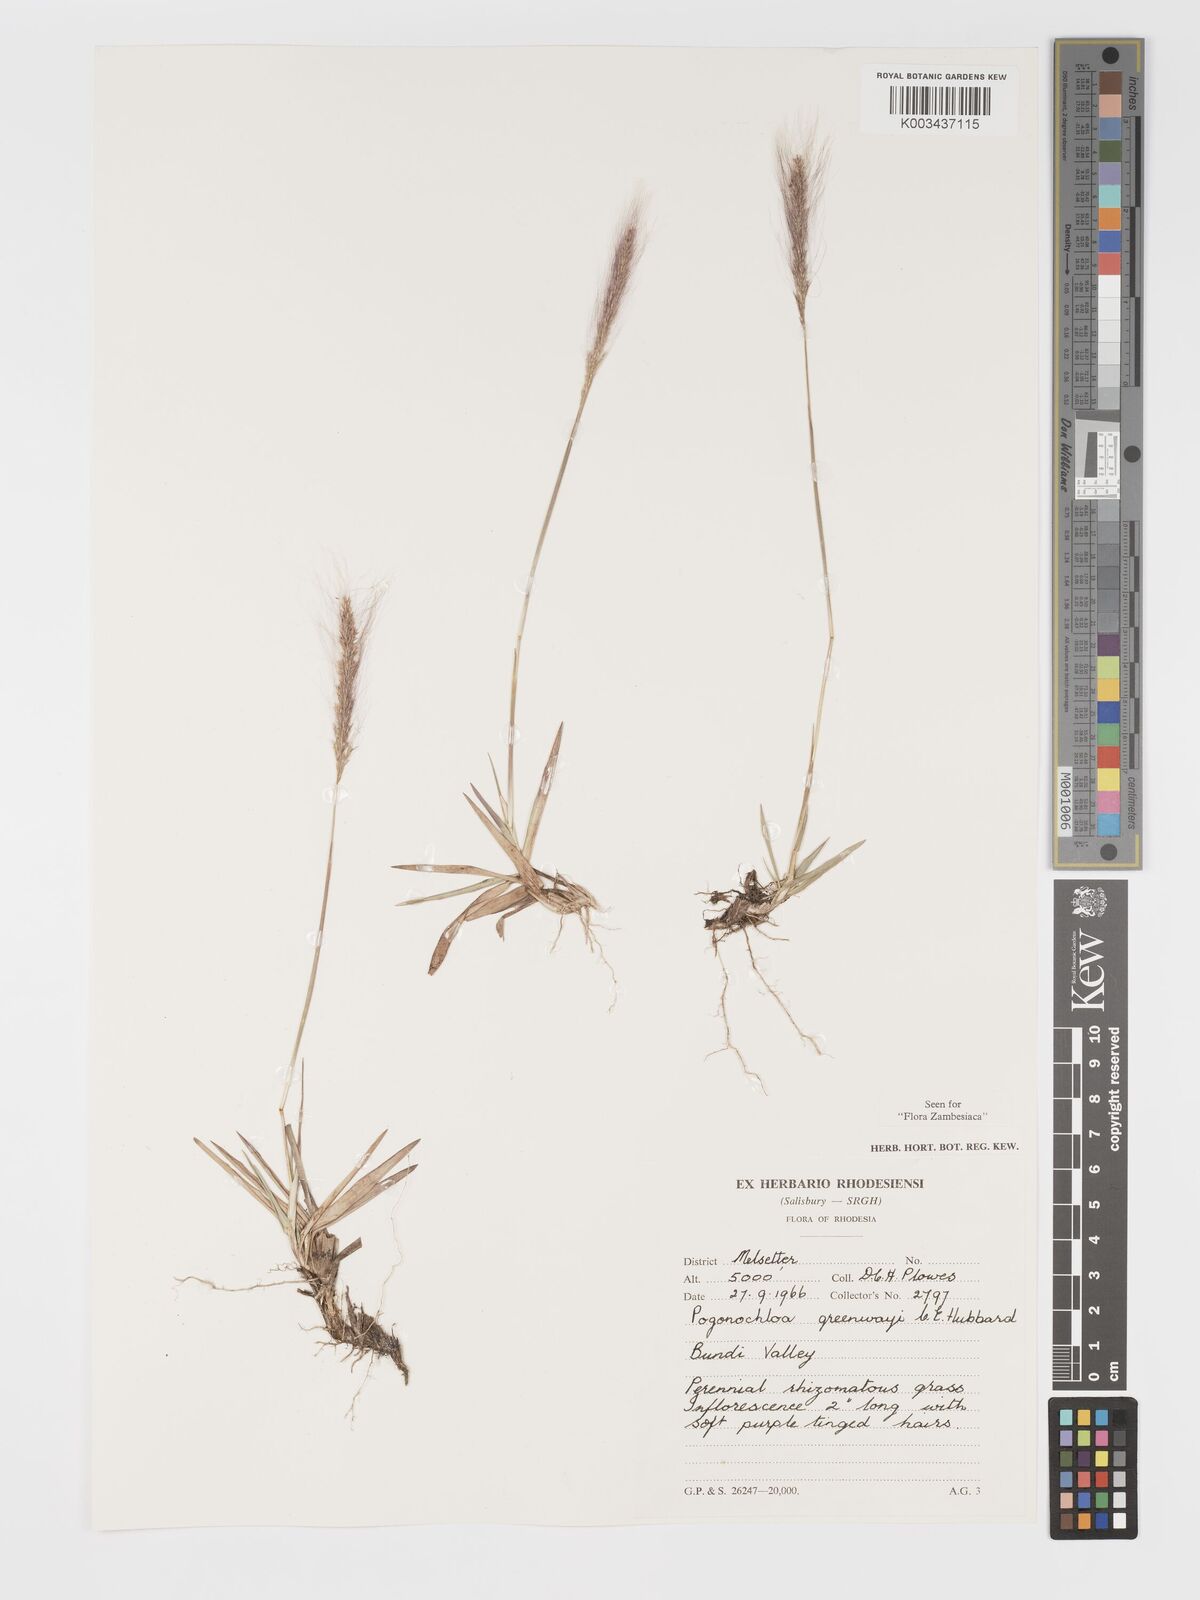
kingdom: Plantae
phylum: Tracheophyta
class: Liliopsida
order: Poales
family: Poaceae
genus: Pogonochloa
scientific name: Pogonochloa greenwayi
